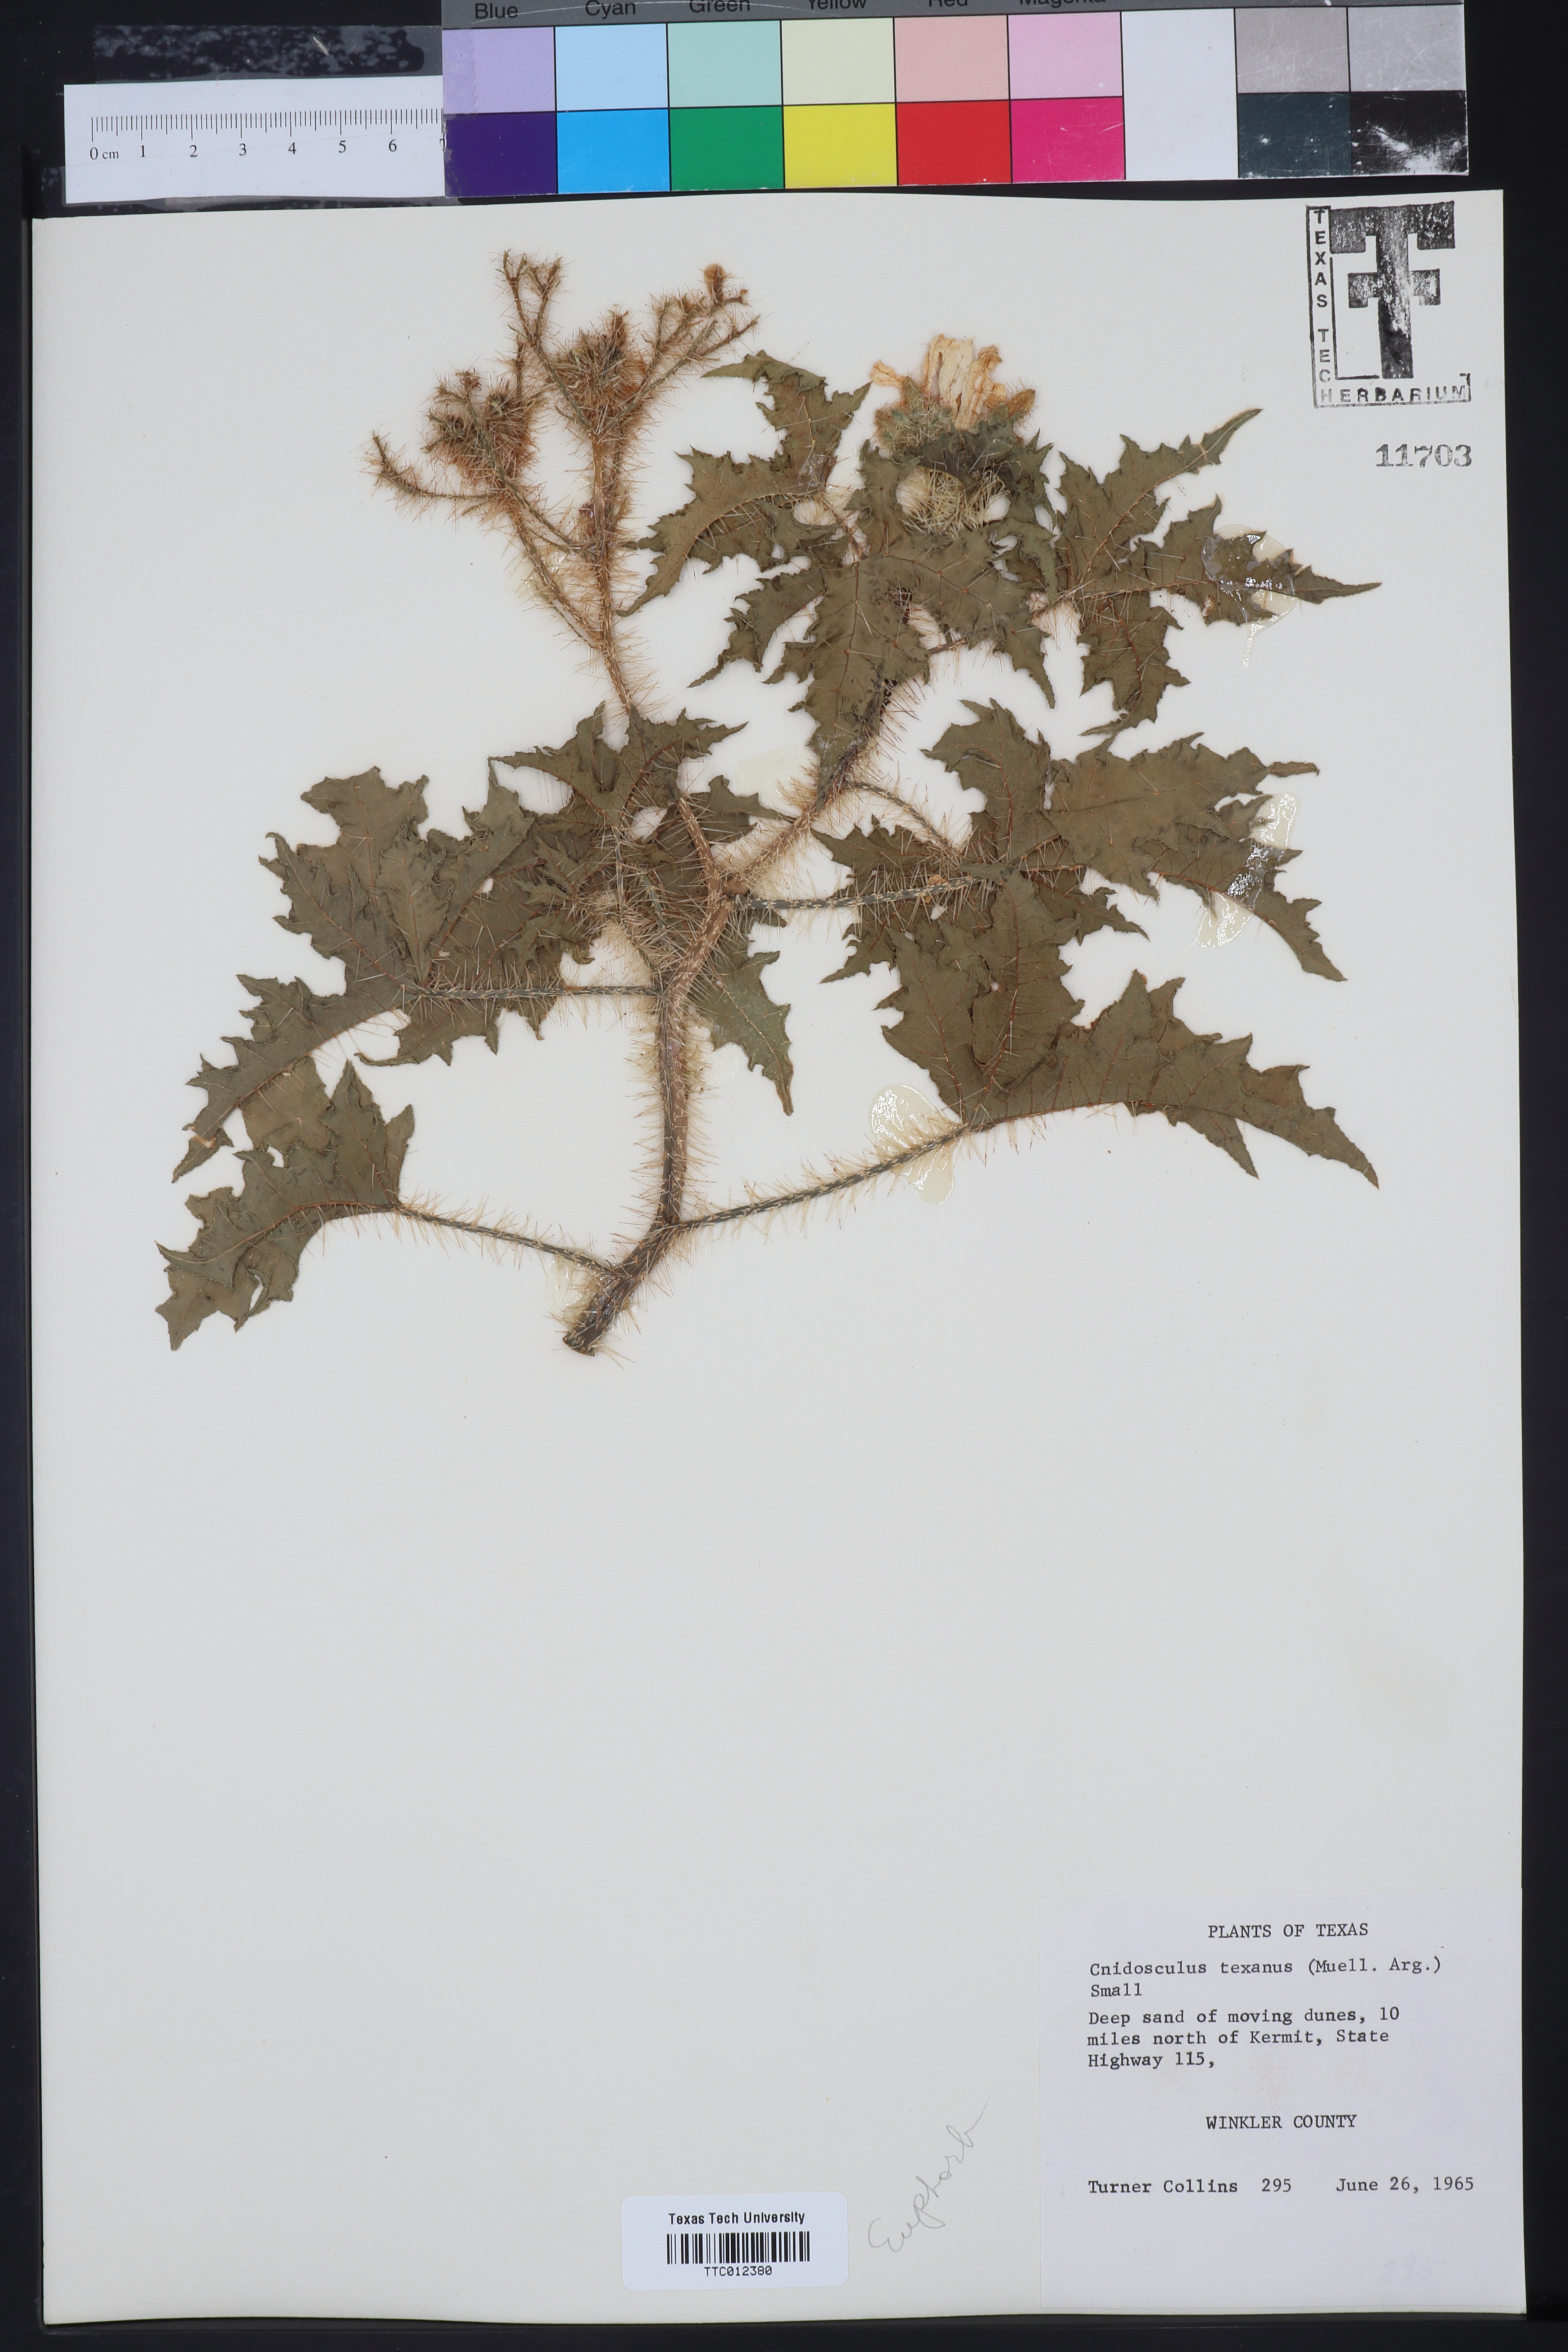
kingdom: Plantae
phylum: Tracheophyta
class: Magnoliopsida
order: Malpighiales
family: Euphorbiaceae
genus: Cnidoscolus
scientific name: Cnidoscolus texanus
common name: Texas bull-nettle
